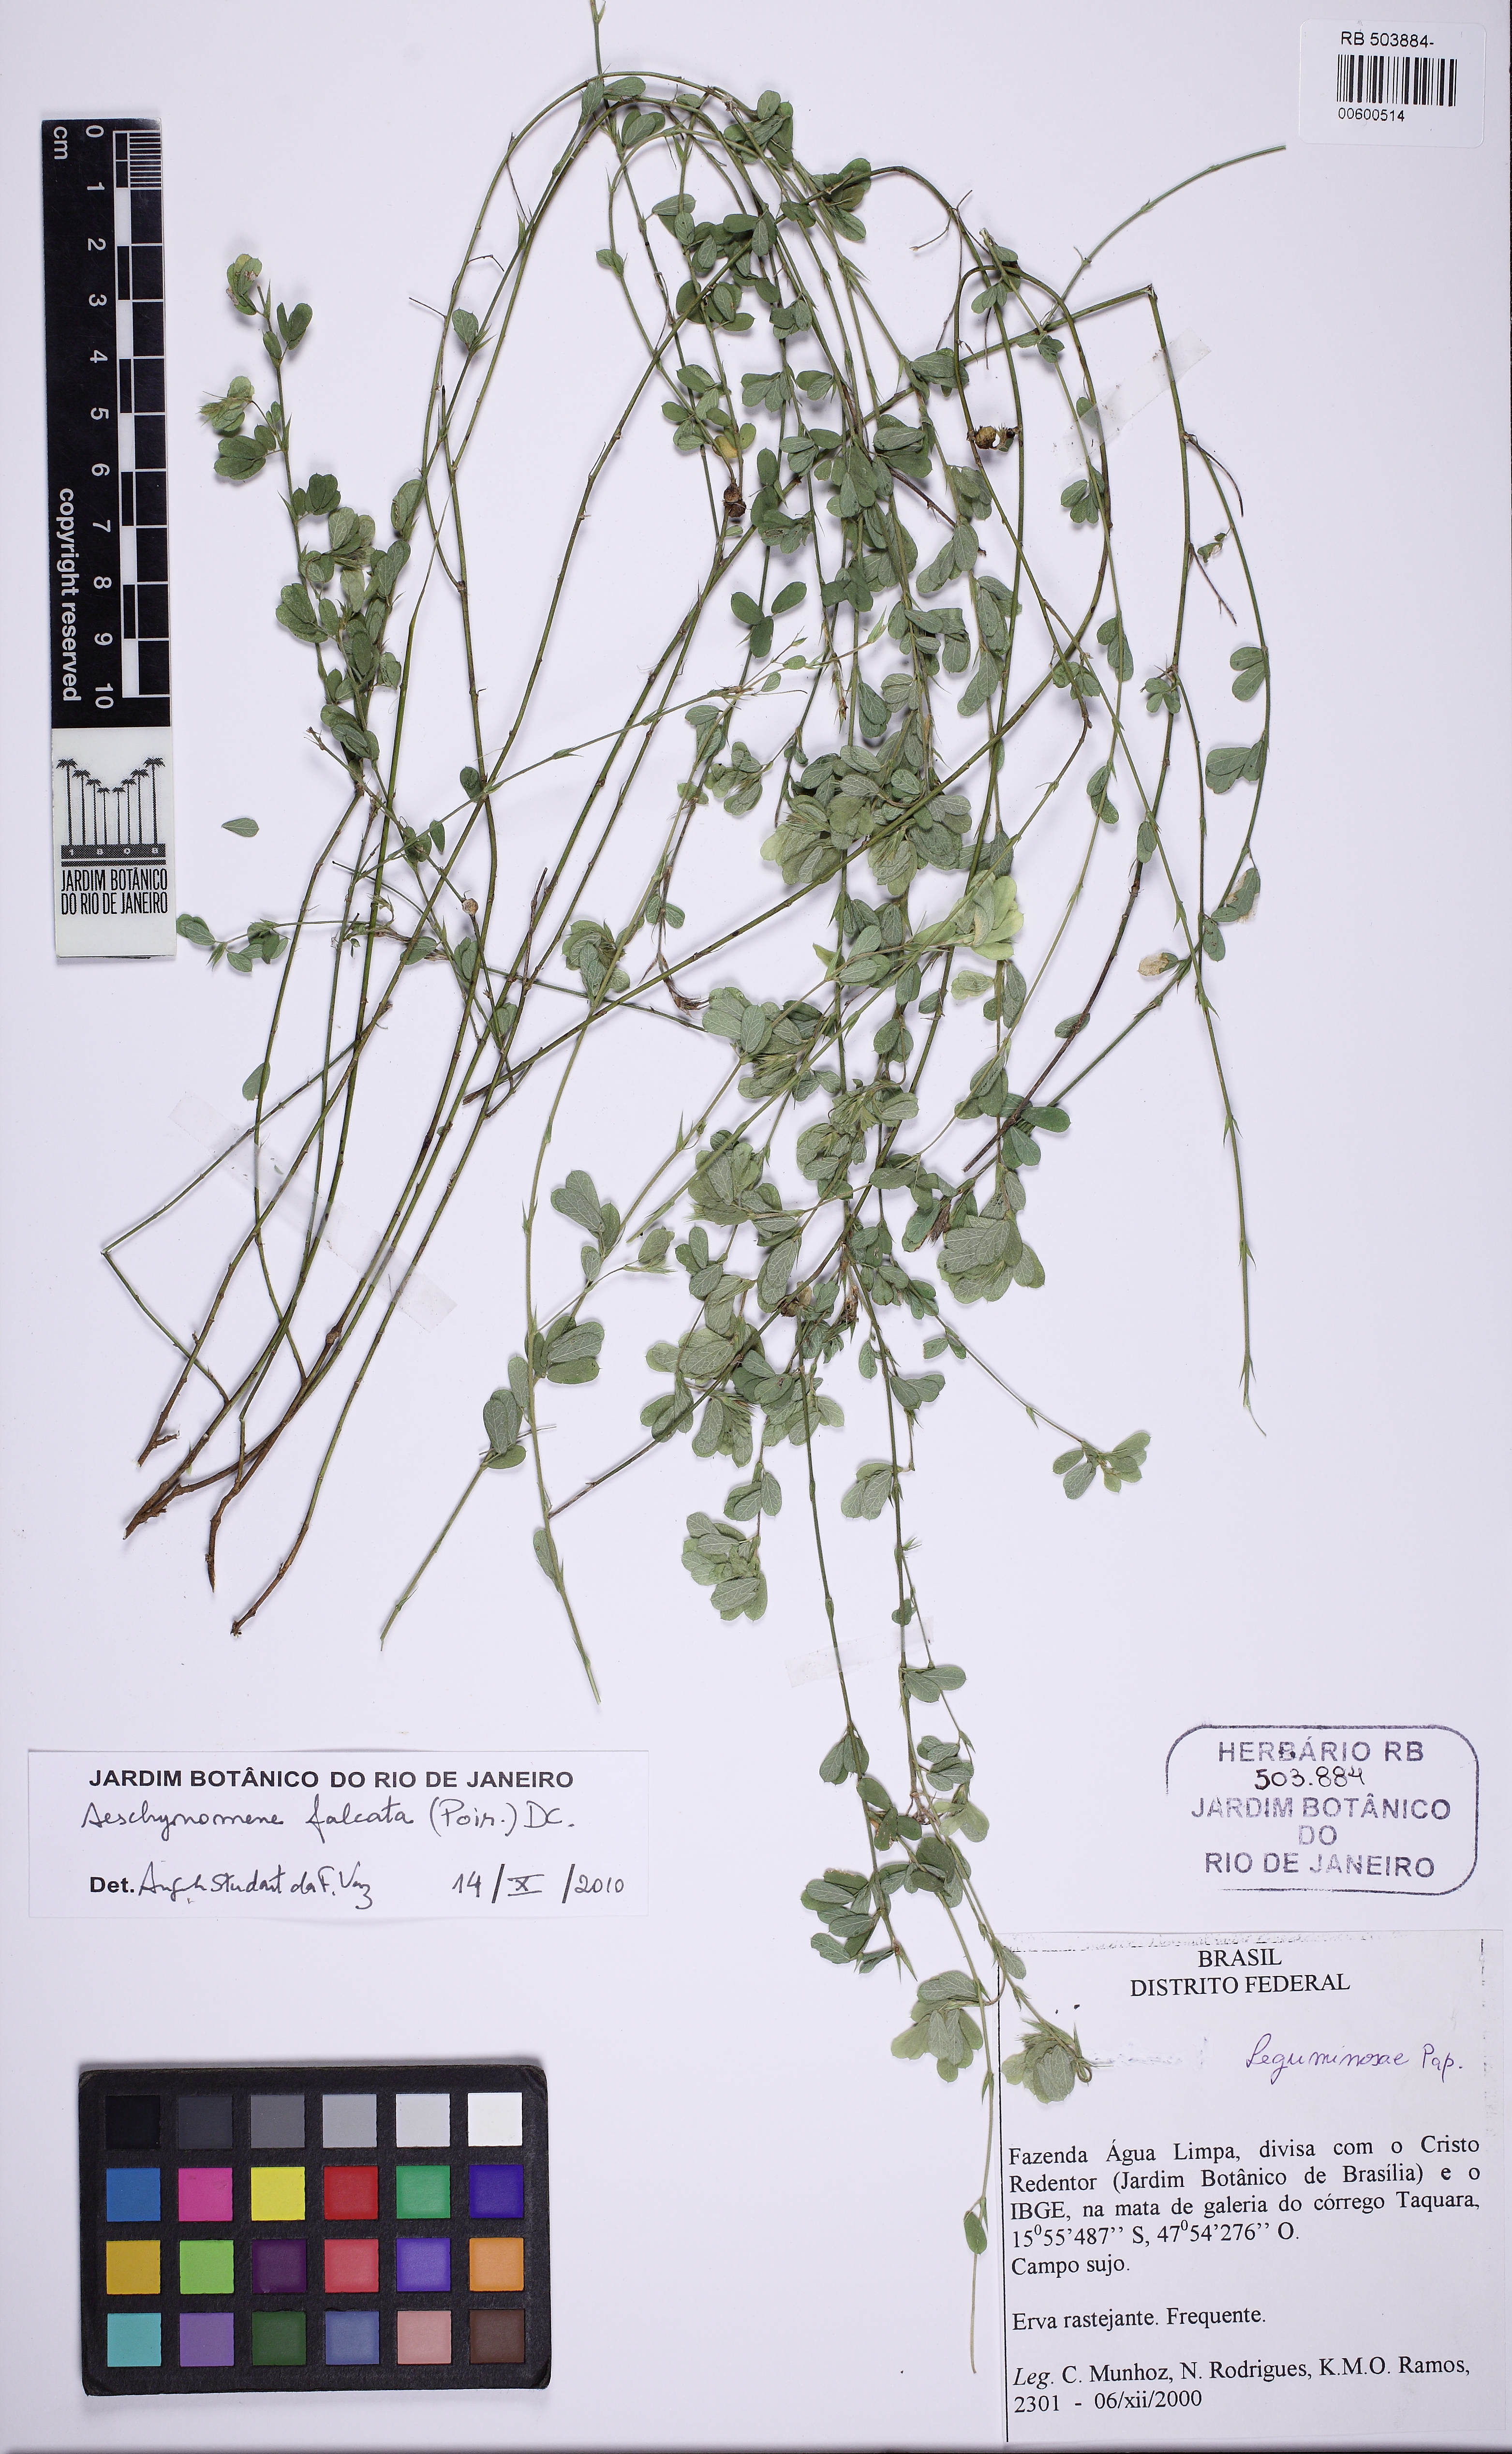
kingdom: Plantae
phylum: Tracheophyta
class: Magnoliopsida
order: Fabales
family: Fabaceae
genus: Ctenodon
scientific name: Ctenodon falcatus
